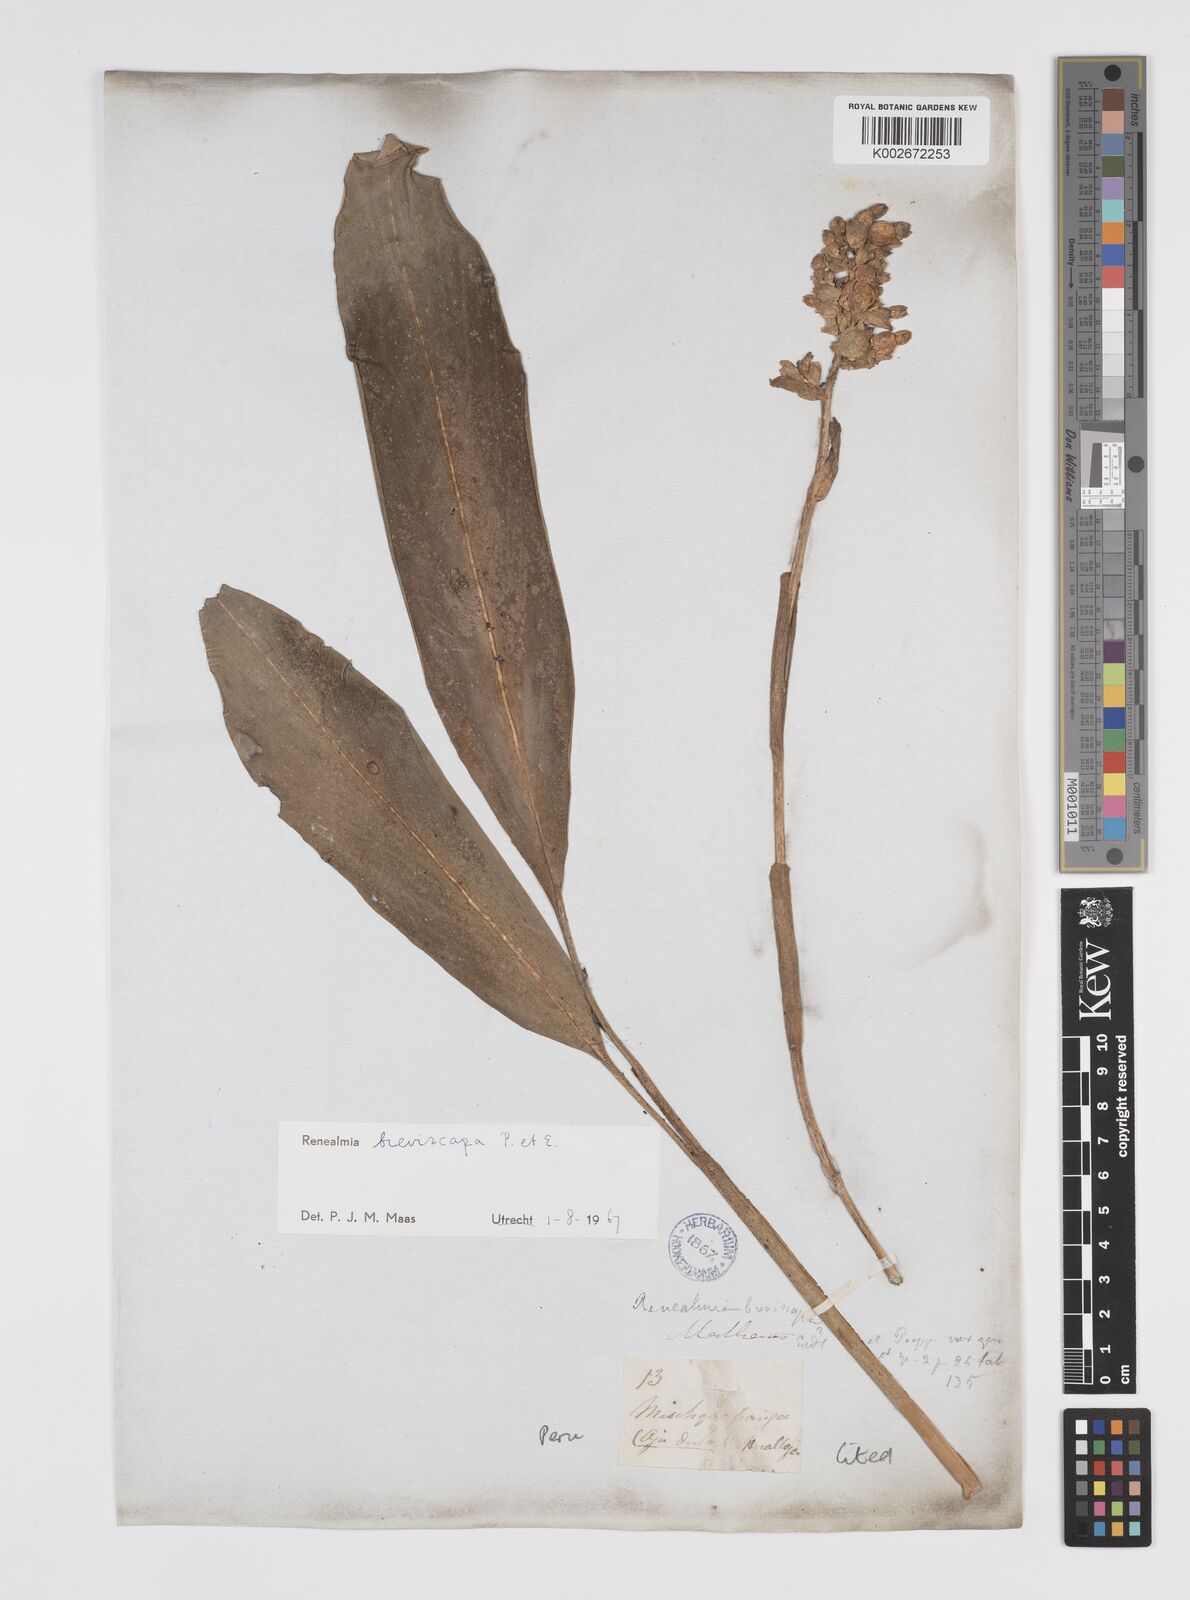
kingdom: Plantae
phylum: Tracheophyta
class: Liliopsida
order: Zingiberales
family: Zingiberaceae
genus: Renealmia
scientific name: Renealmia breviscapa
